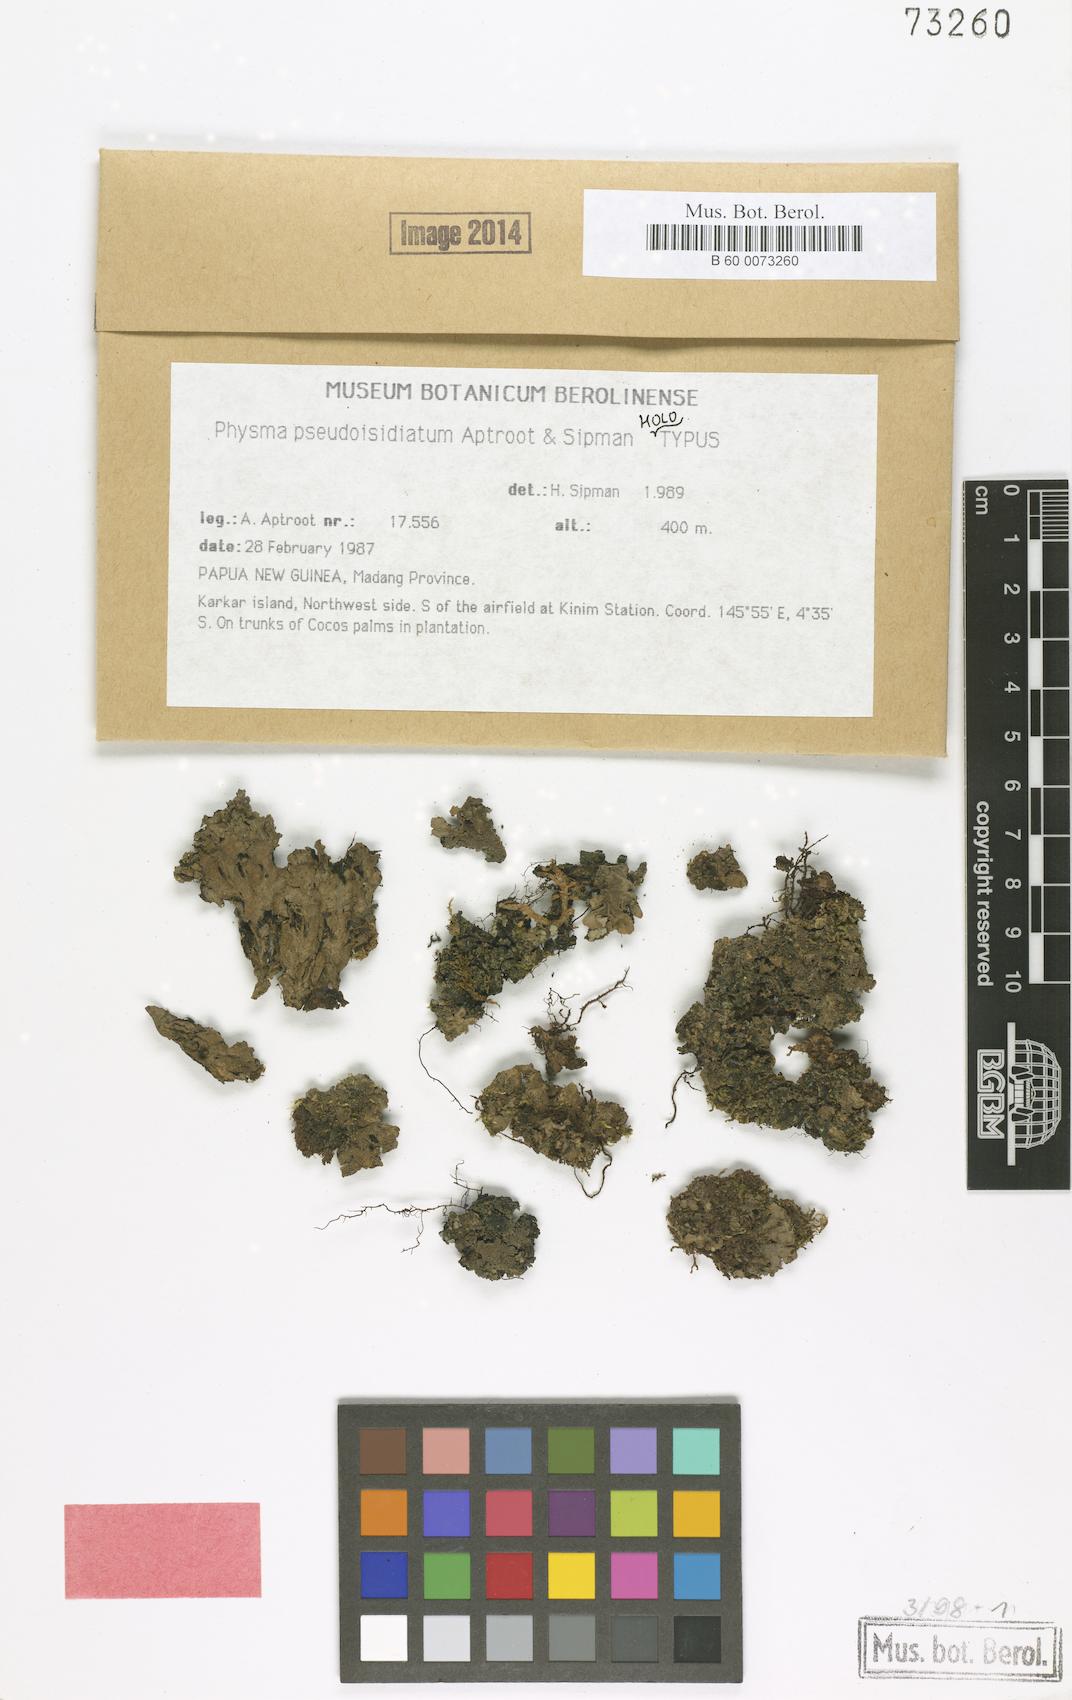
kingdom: Fungi
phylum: Ascomycota
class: Lecanoromycetes
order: Peltigerales
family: Pannariaceae
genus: Physma
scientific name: Physma pseudoisidiatum
